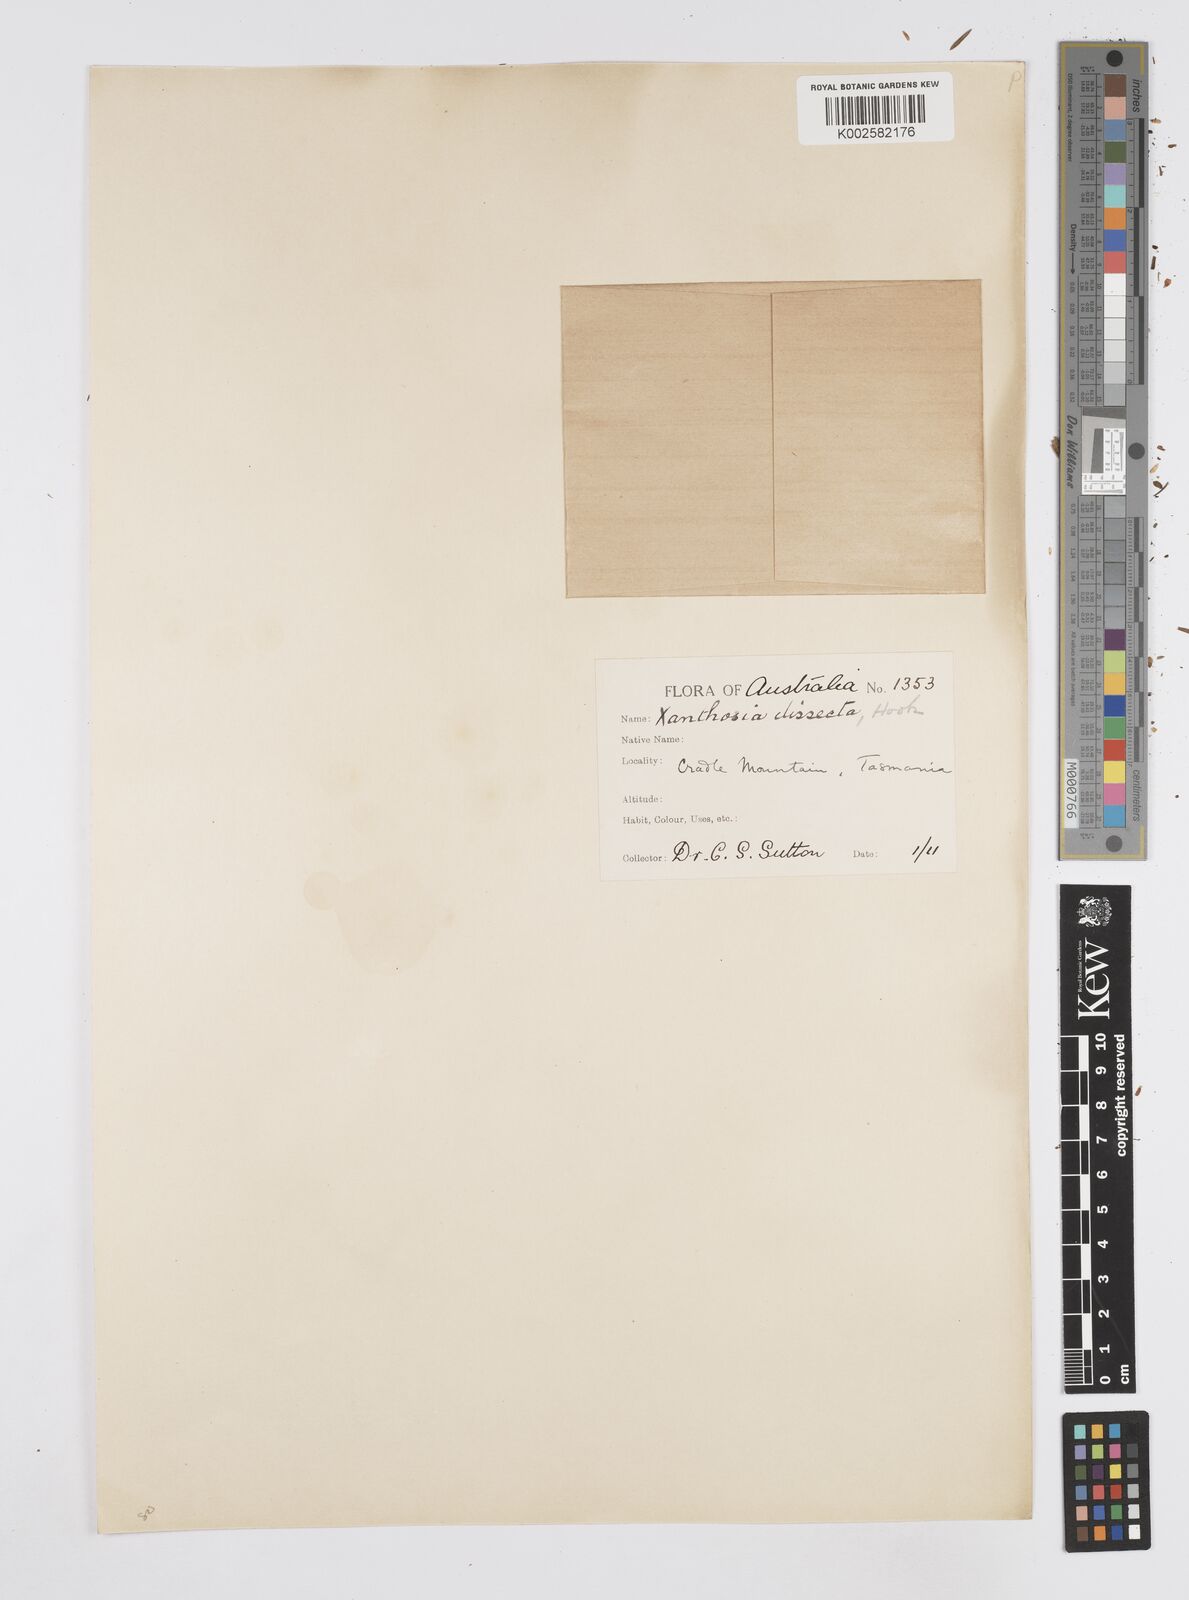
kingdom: Plantae
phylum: Tracheophyta
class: Magnoliopsida
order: Apiales
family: Apiaceae
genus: Xanthosia
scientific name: Xanthosia dissecta
